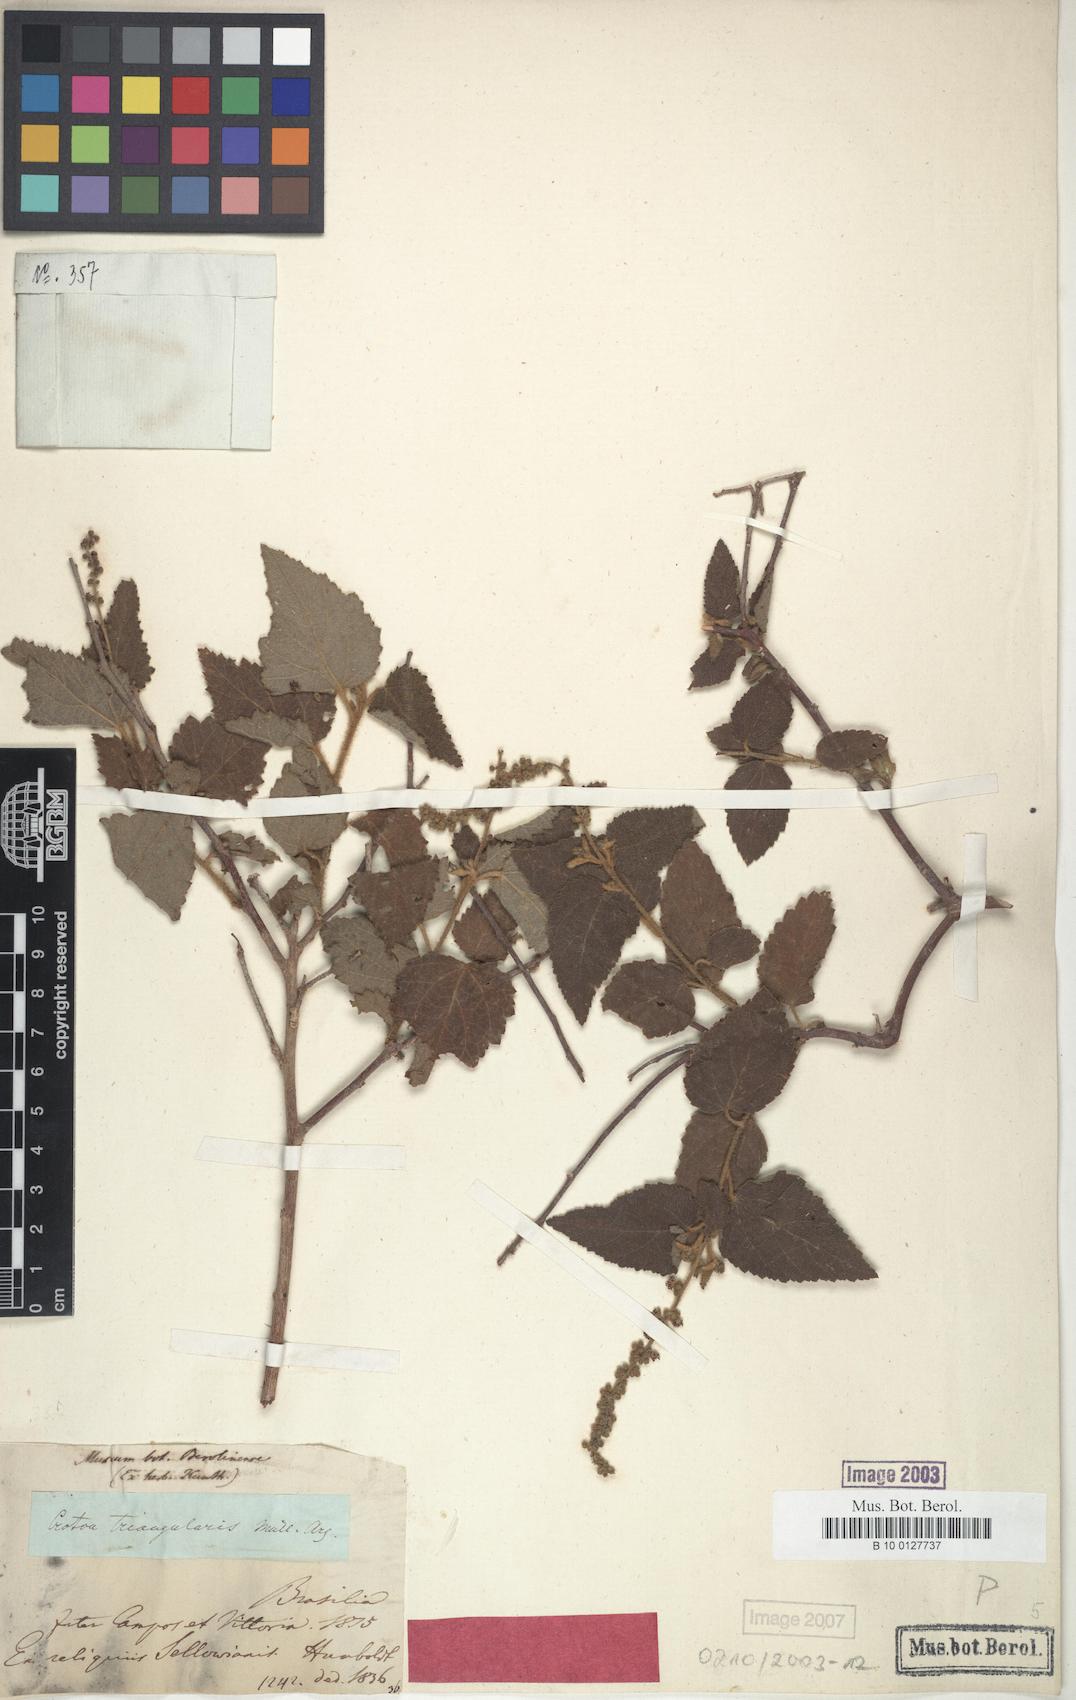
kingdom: Plantae
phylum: Tracheophyta
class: Magnoliopsida
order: Malpighiales
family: Euphorbiaceae
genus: Croton
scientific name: Croton triangularis
